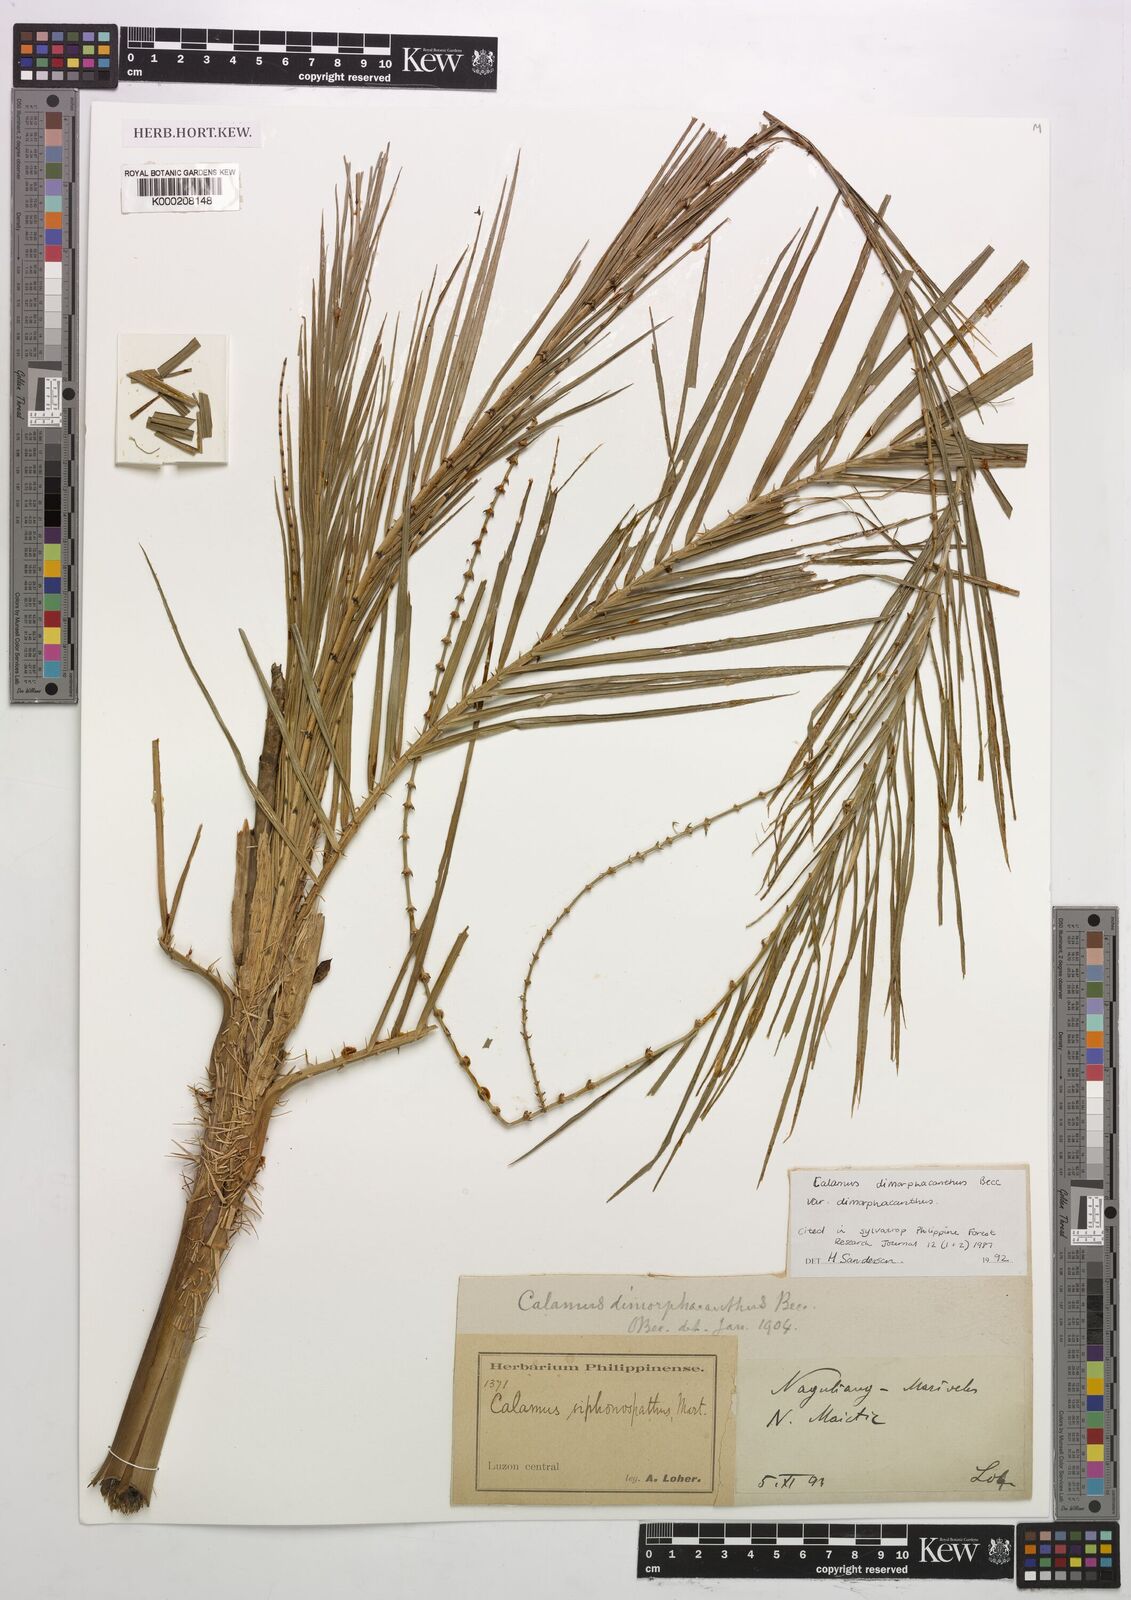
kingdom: Plantae
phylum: Tracheophyta
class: Liliopsida
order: Arecales
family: Arecaceae
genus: Calamus
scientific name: Calamus siphonospathus
